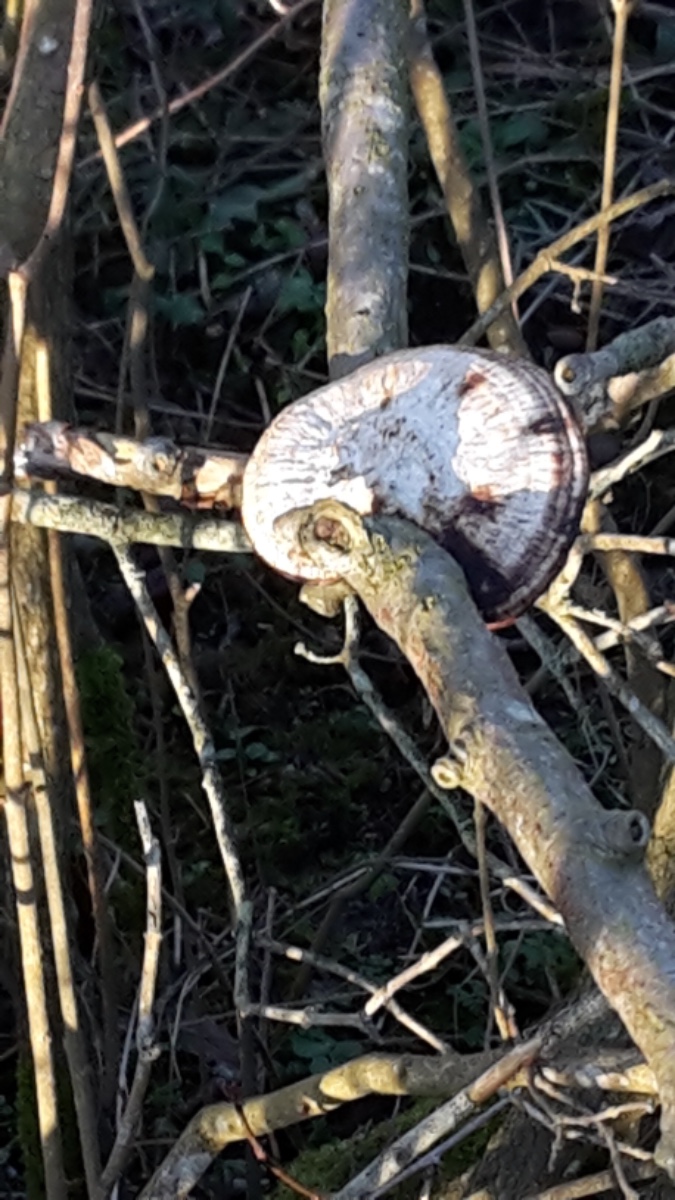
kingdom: Fungi
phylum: Basidiomycota
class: Agaricomycetes
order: Polyporales
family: Polyporaceae
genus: Daedaleopsis
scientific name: Daedaleopsis confragosa
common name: rødmende læderporesvamp
